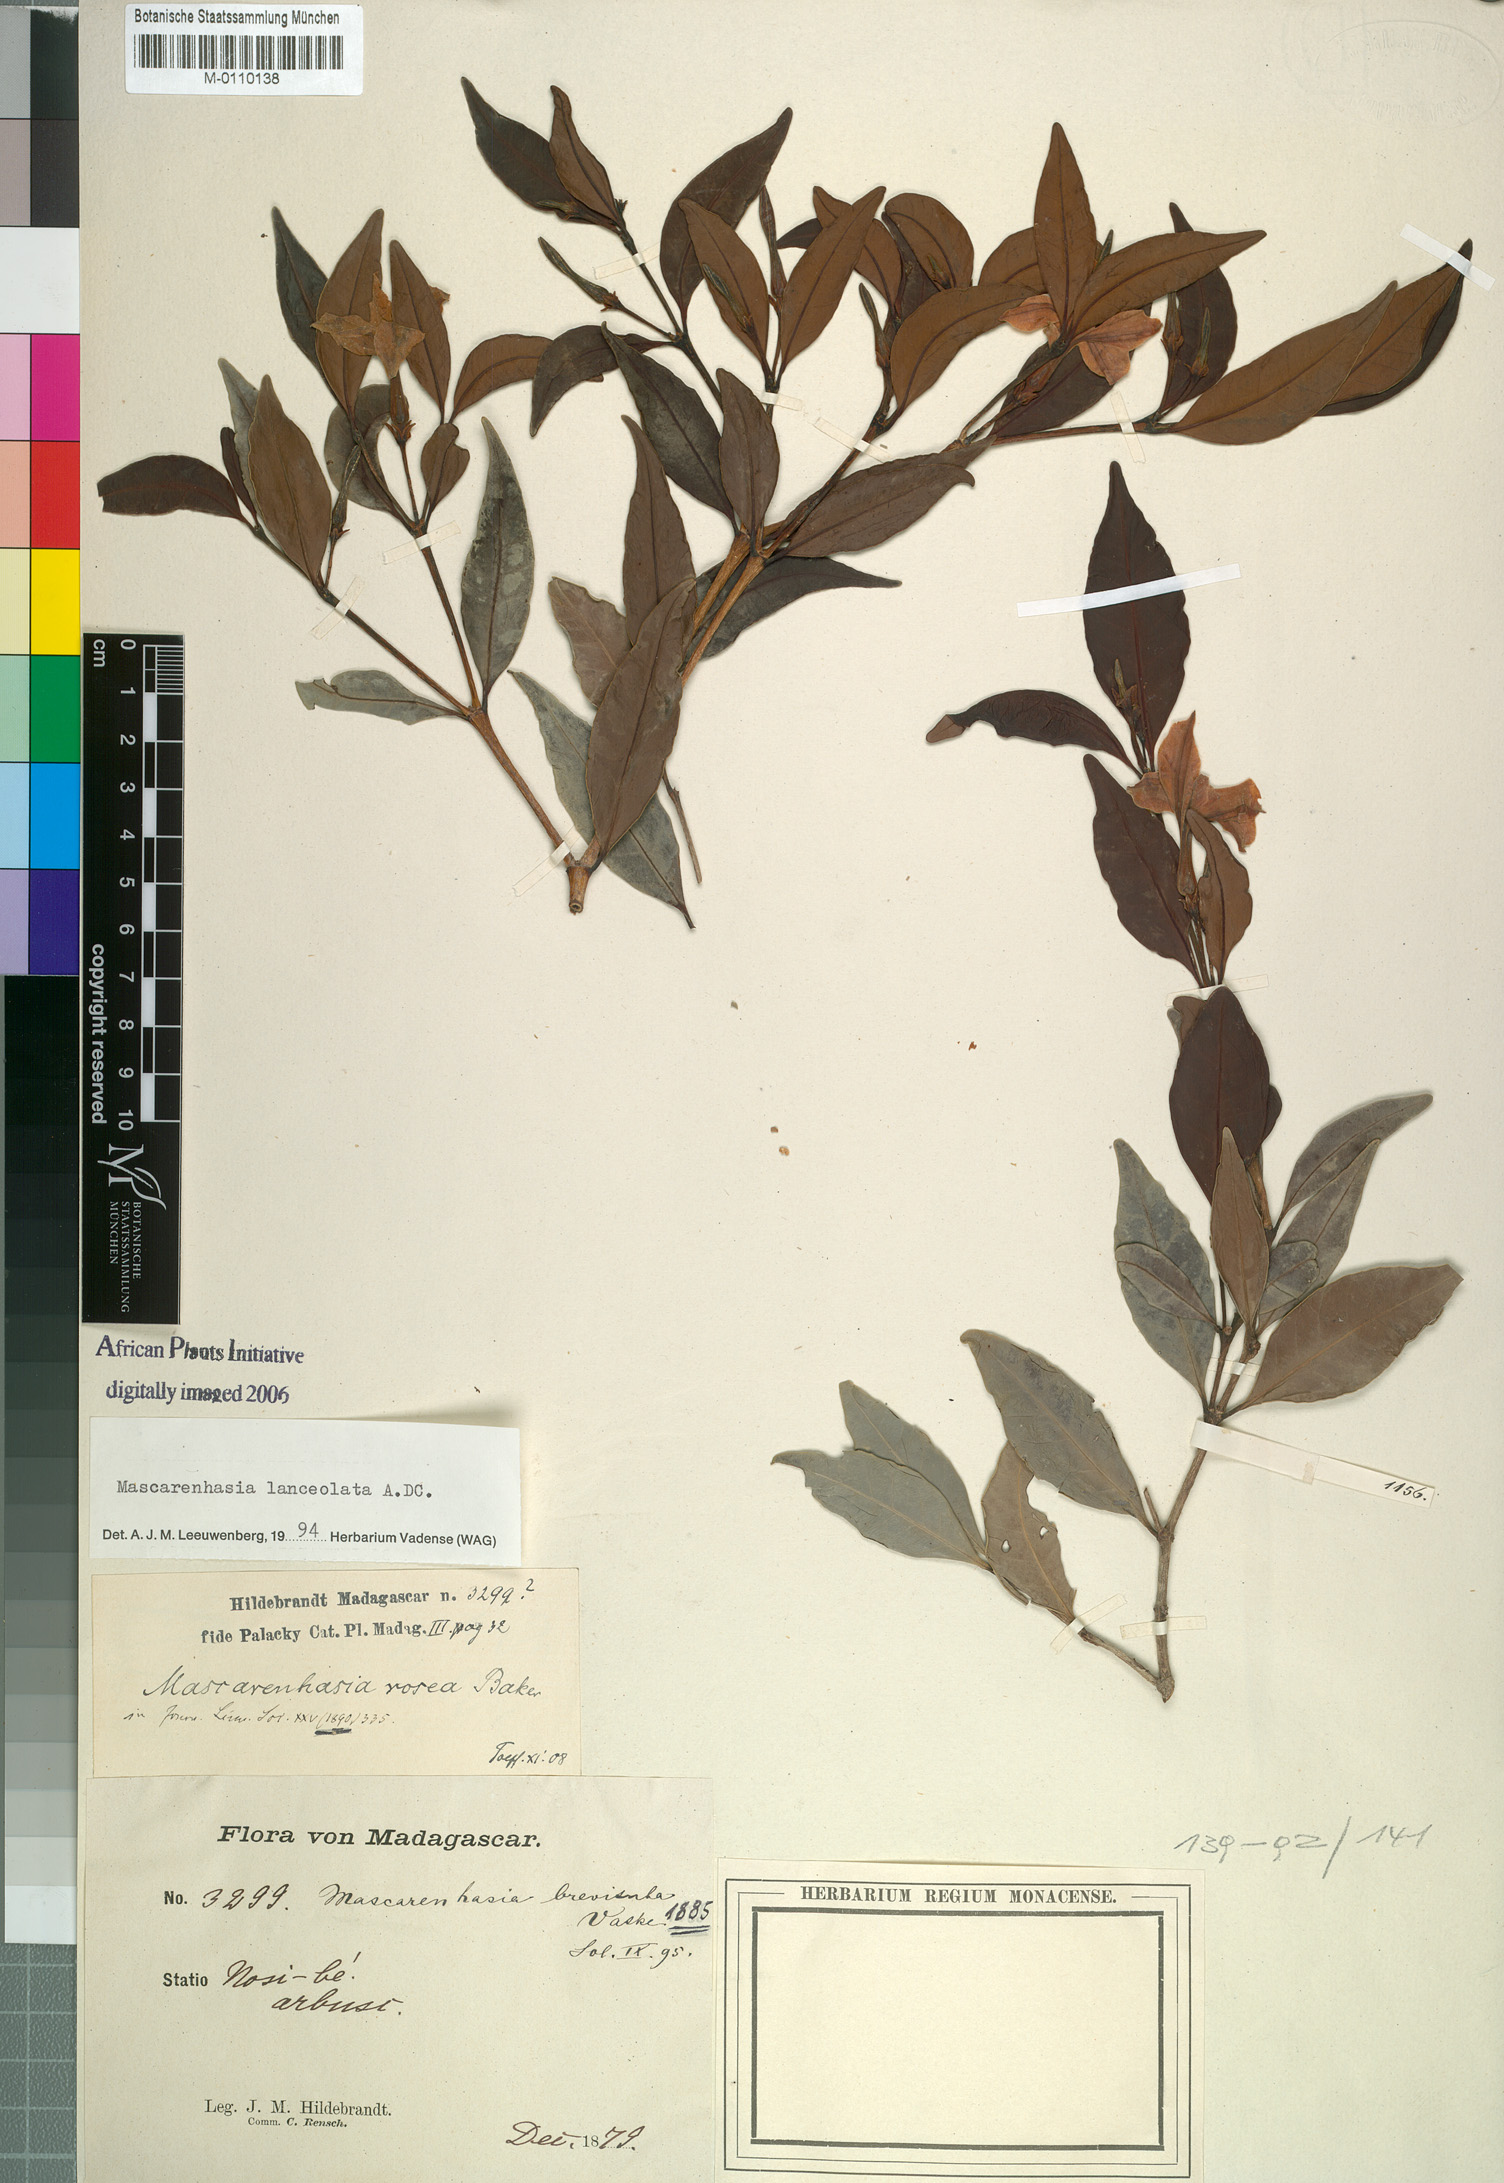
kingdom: Plantae
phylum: Tracheophyta
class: Magnoliopsida
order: Gentianales
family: Apocynaceae
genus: Mascarenhasia
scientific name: Mascarenhasia lanceolata
